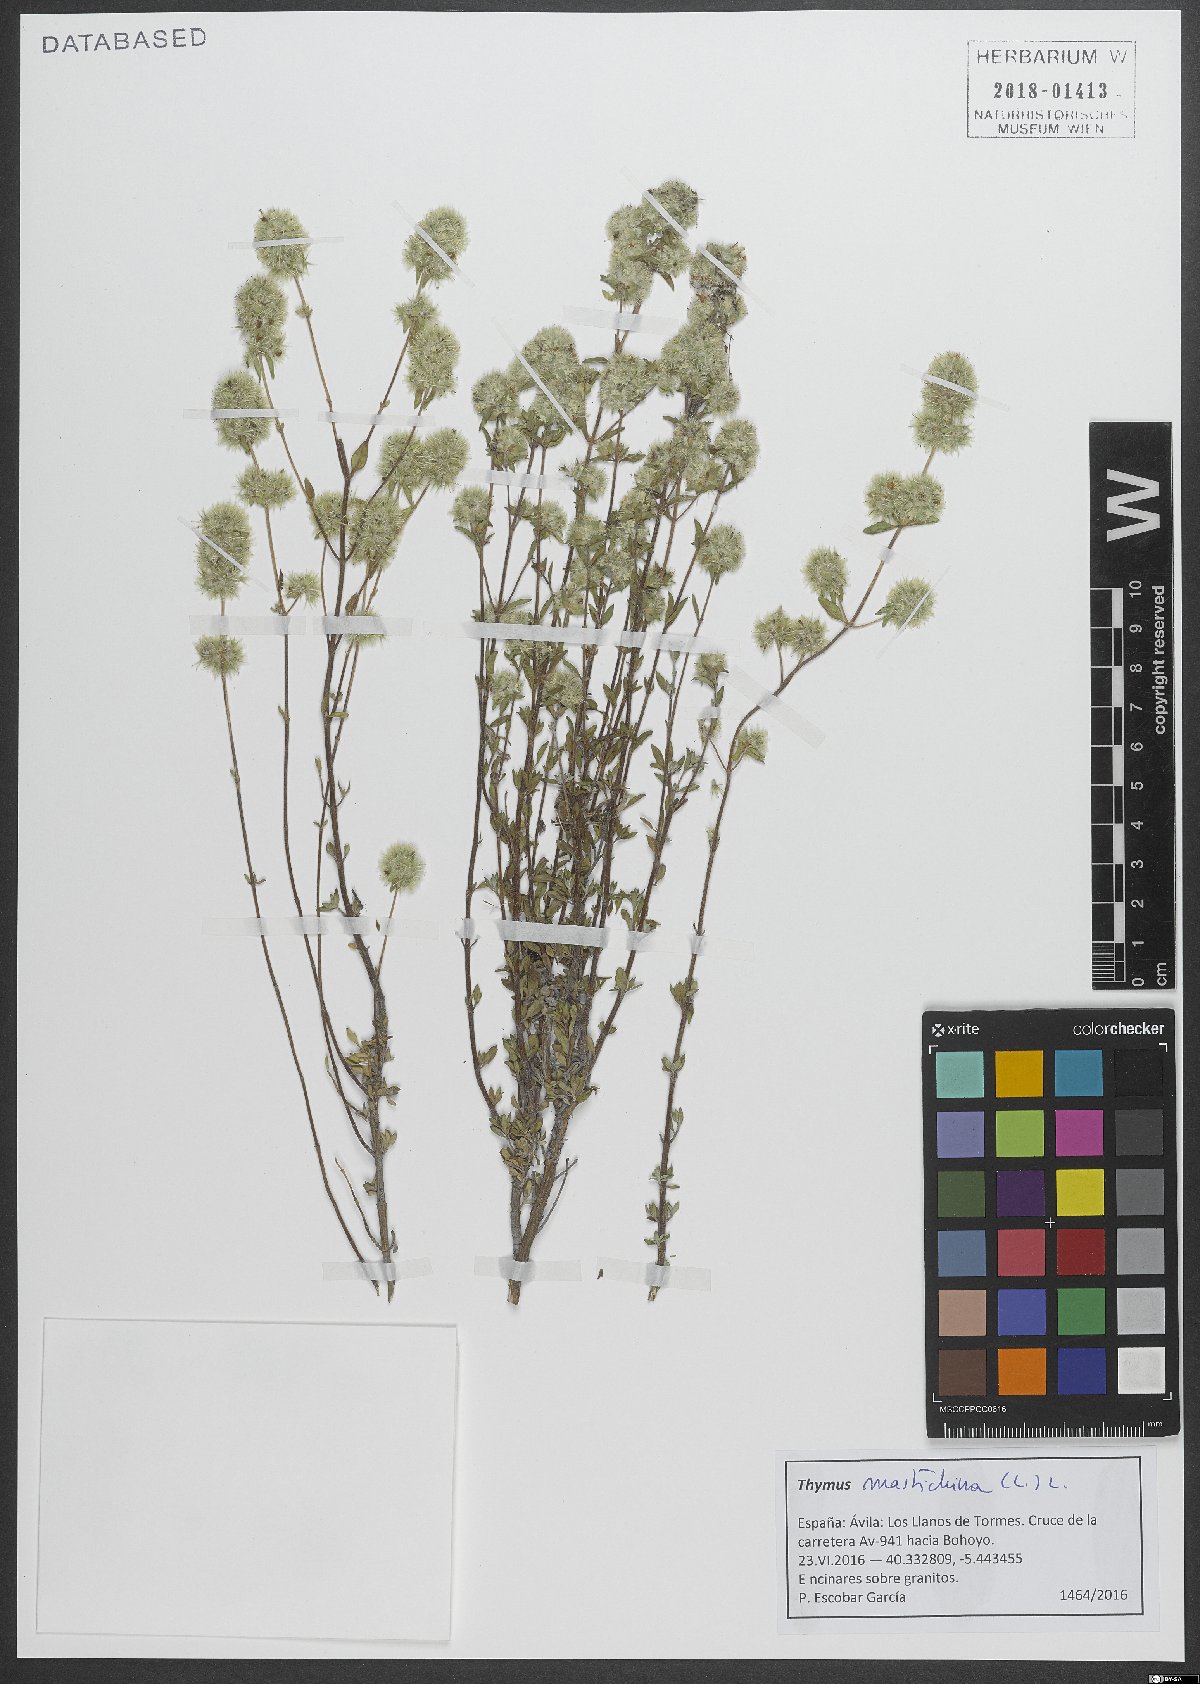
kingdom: Plantae
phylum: Tracheophyta
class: Magnoliopsida
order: Lamiales
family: Lamiaceae
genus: Thymus
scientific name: Thymus mastichina
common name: Mastic thyme
